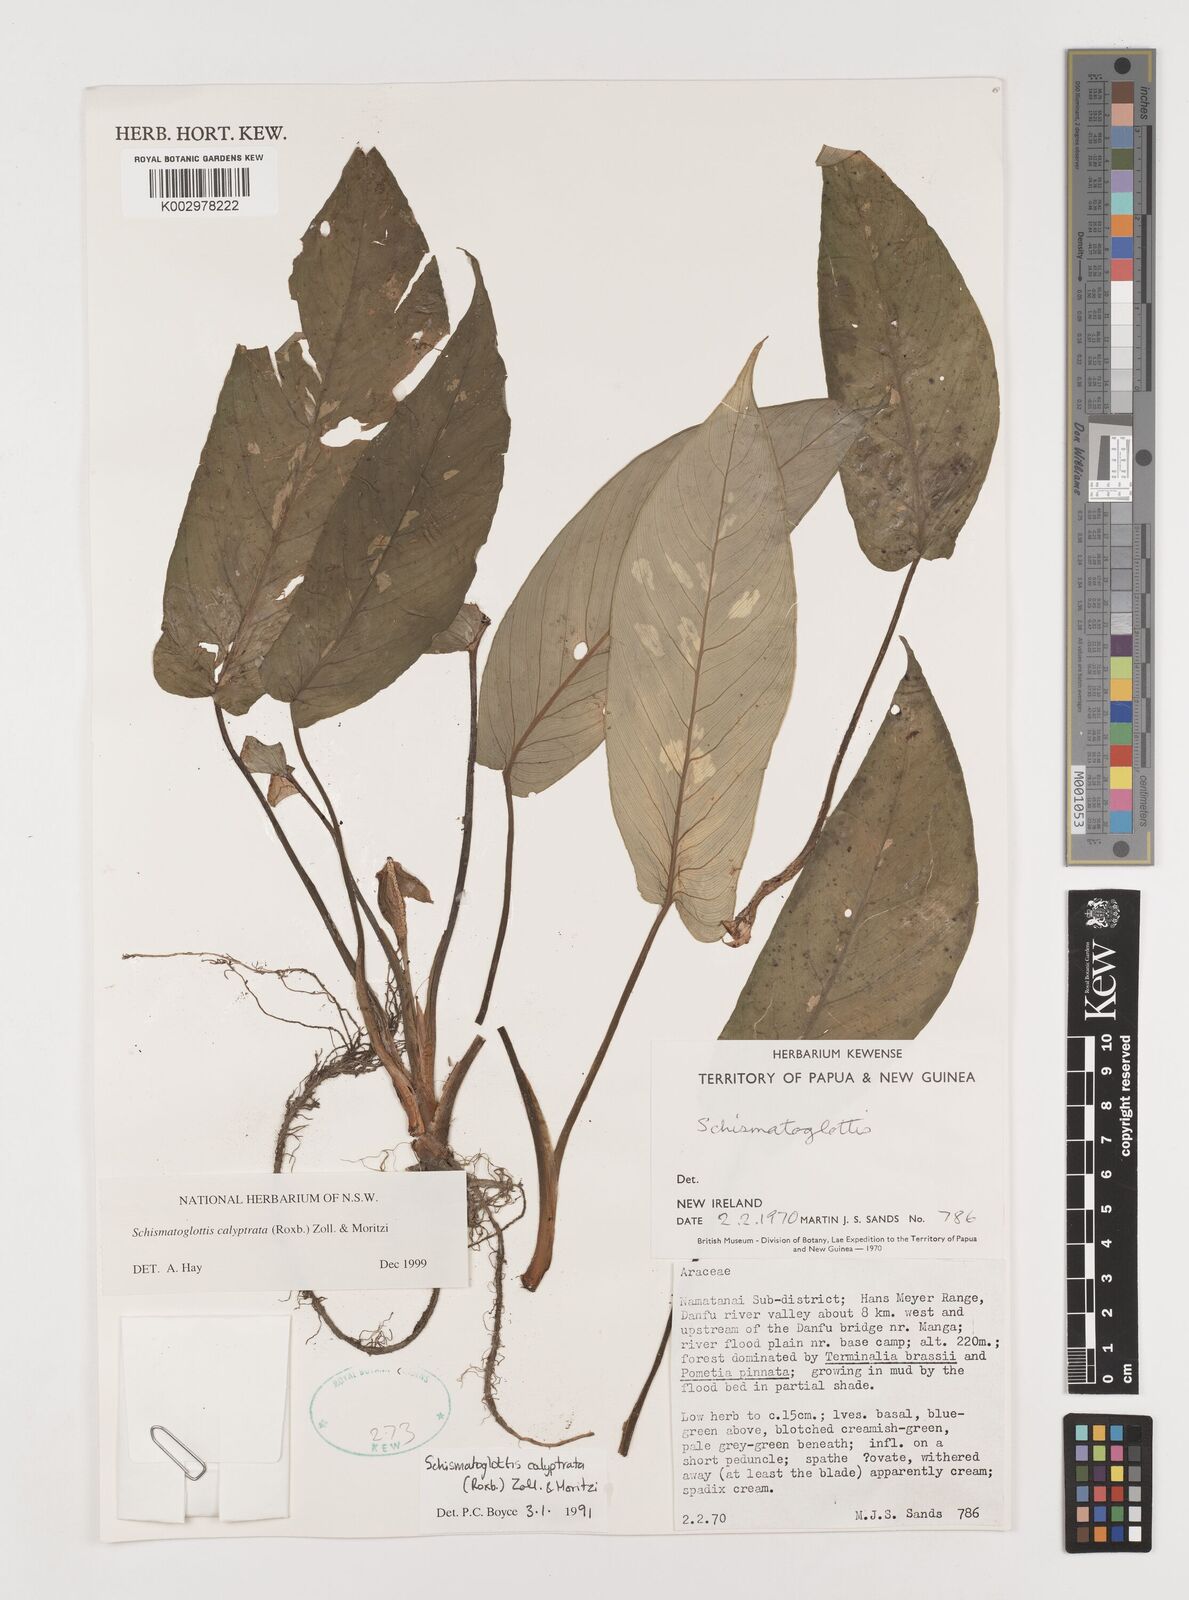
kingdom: Plantae
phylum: Tracheophyta
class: Liliopsida
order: Alismatales
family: Araceae
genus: Schismatoglottis
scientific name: Schismatoglottis calyptrata
